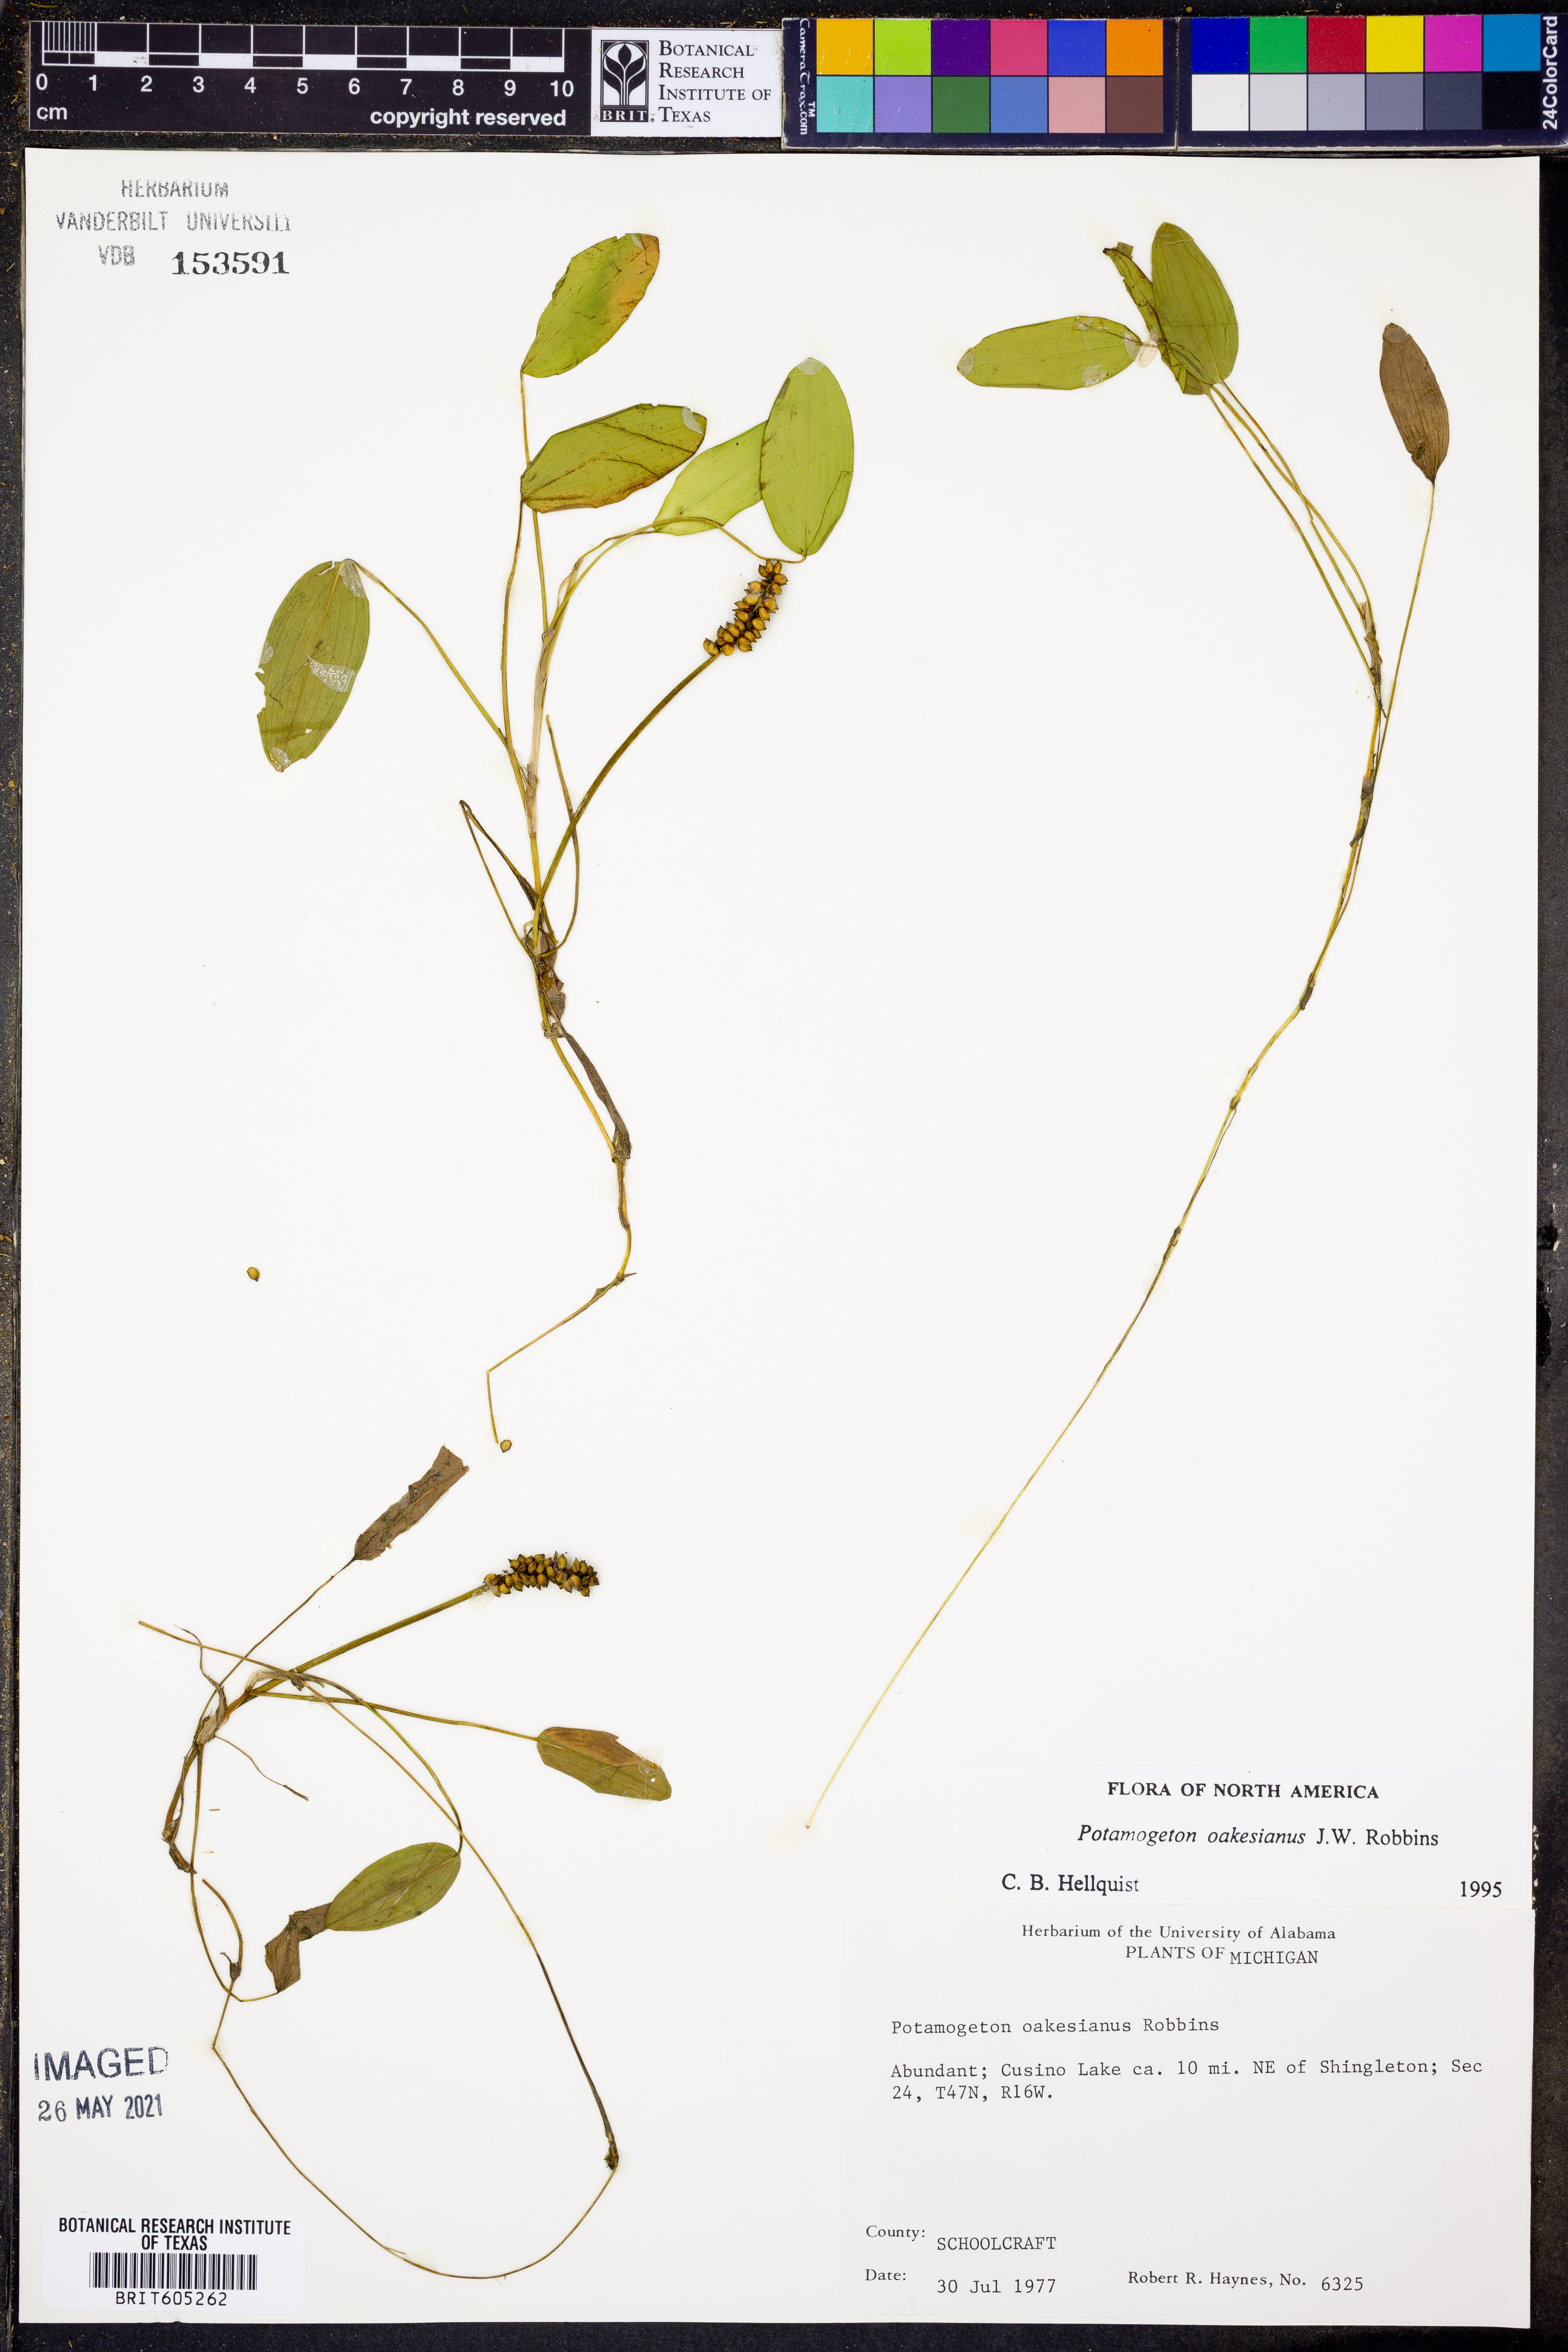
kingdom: Plantae
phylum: Tracheophyta
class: Liliopsida
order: Alismatales
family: Potamogetonaceae
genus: Potamogeton
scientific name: Potamogeton oakesianus
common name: Oakes' pondweed
